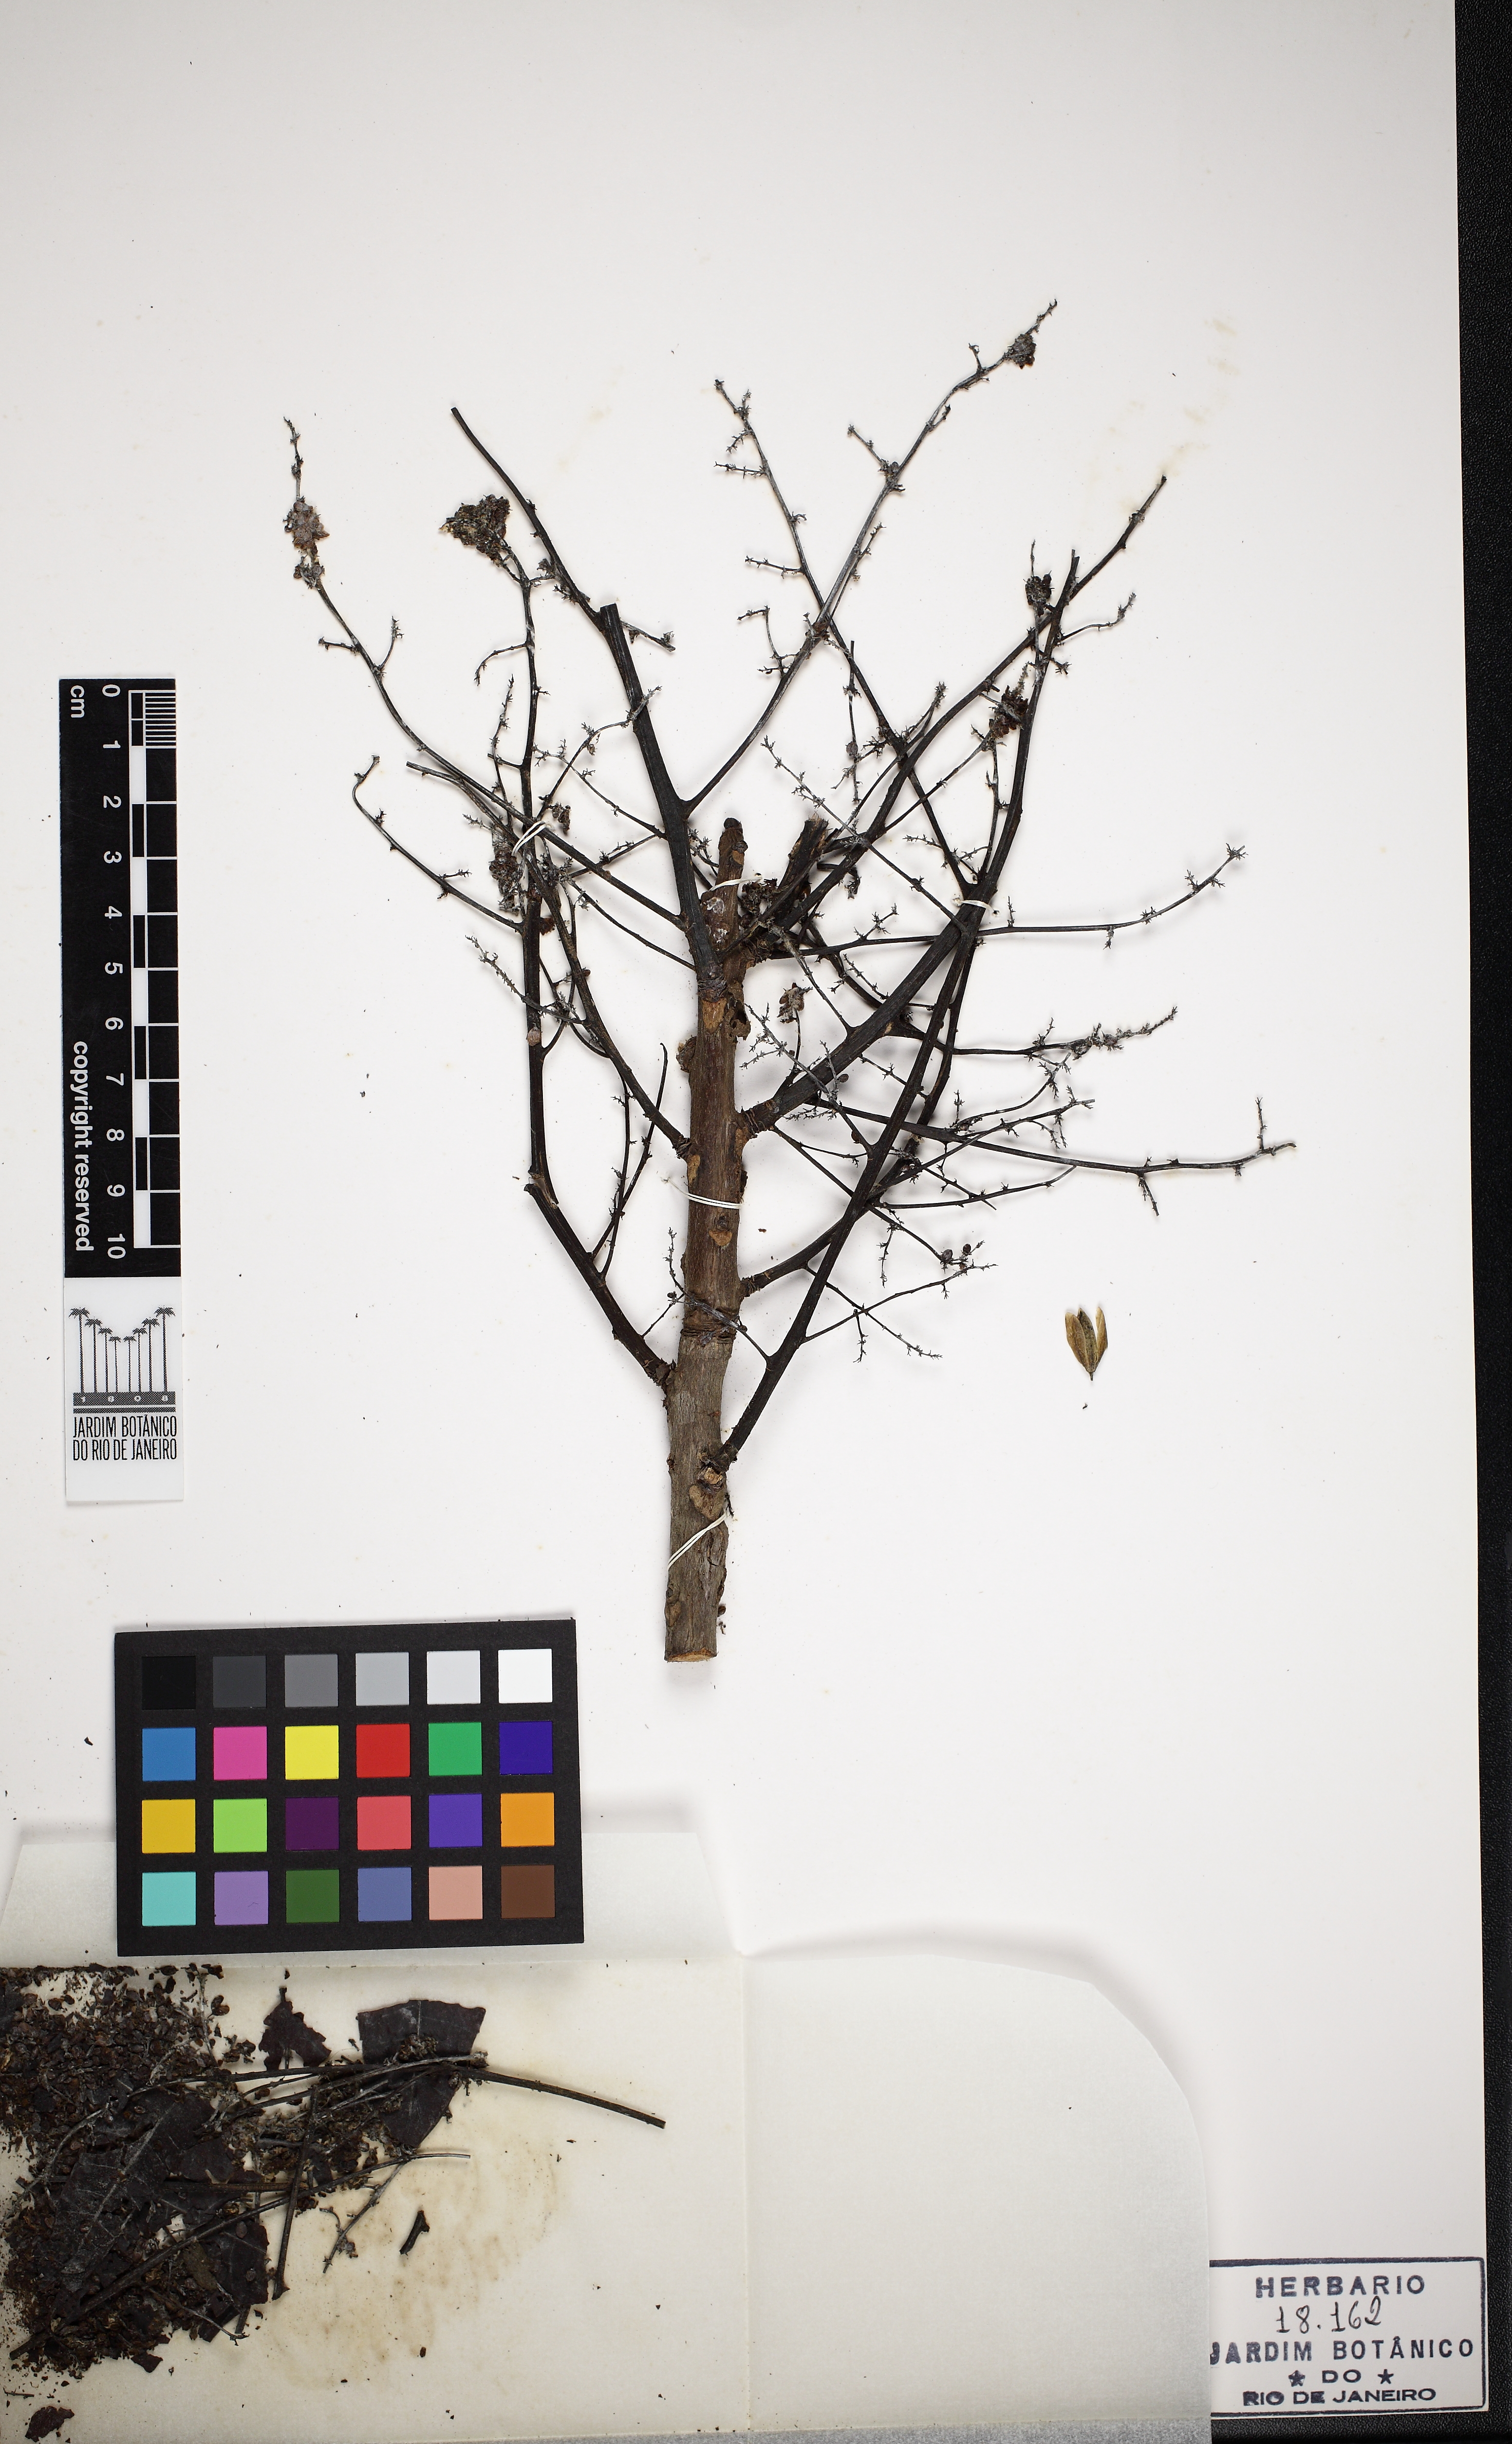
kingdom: Plantae
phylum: Tracheophyta
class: Magnoliopsida
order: Sapindales
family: Anacardiaceae
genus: Astronium
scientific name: Astronium lecointei
